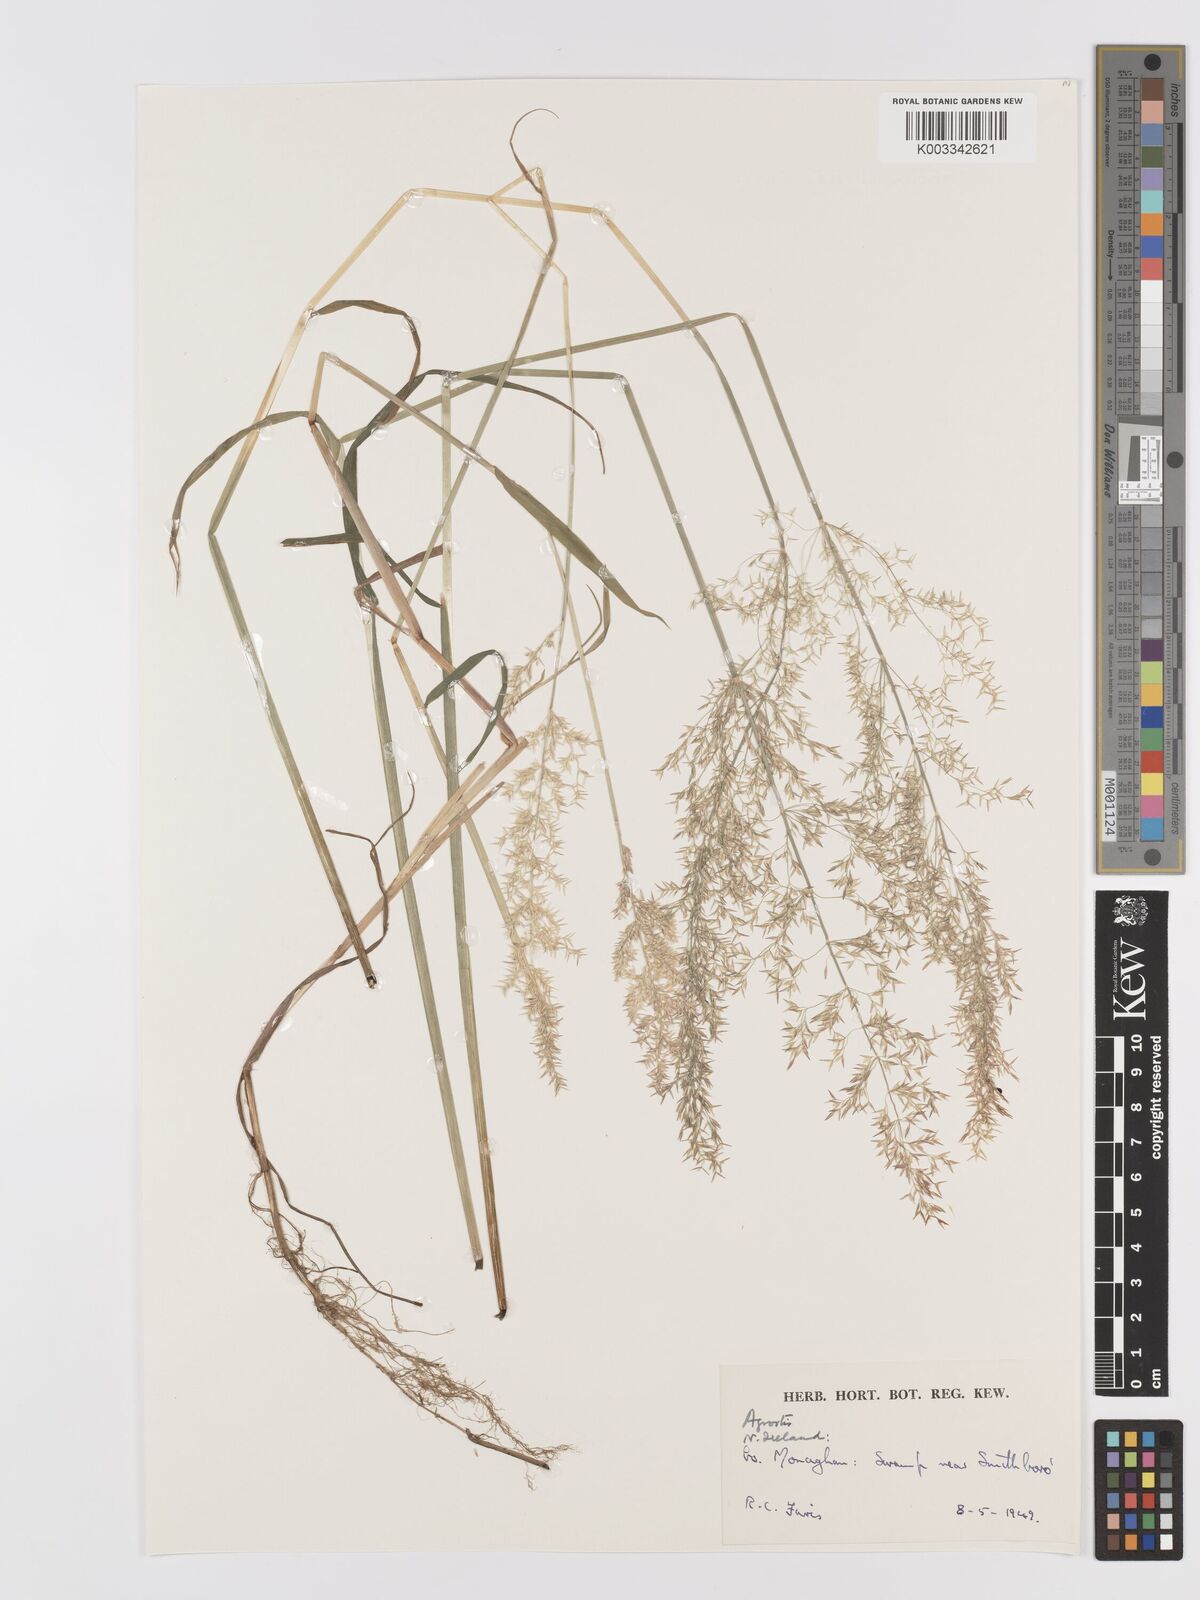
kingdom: Plantae
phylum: Tracheophyta
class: Liliopsida
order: Poales
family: Poaceae
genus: Agrostis
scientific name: Agrostis
